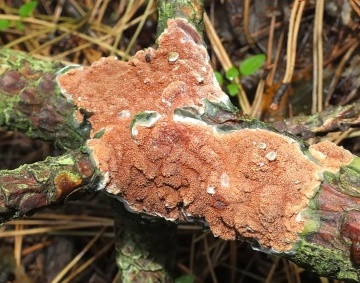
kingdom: Fungi
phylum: Basidiomycota
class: Agaricomycetes
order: Polyporales
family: Irpicaceae
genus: Meruliopsis
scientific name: Meruliopsis taxicola
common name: purpurbrun foldporesvamp
